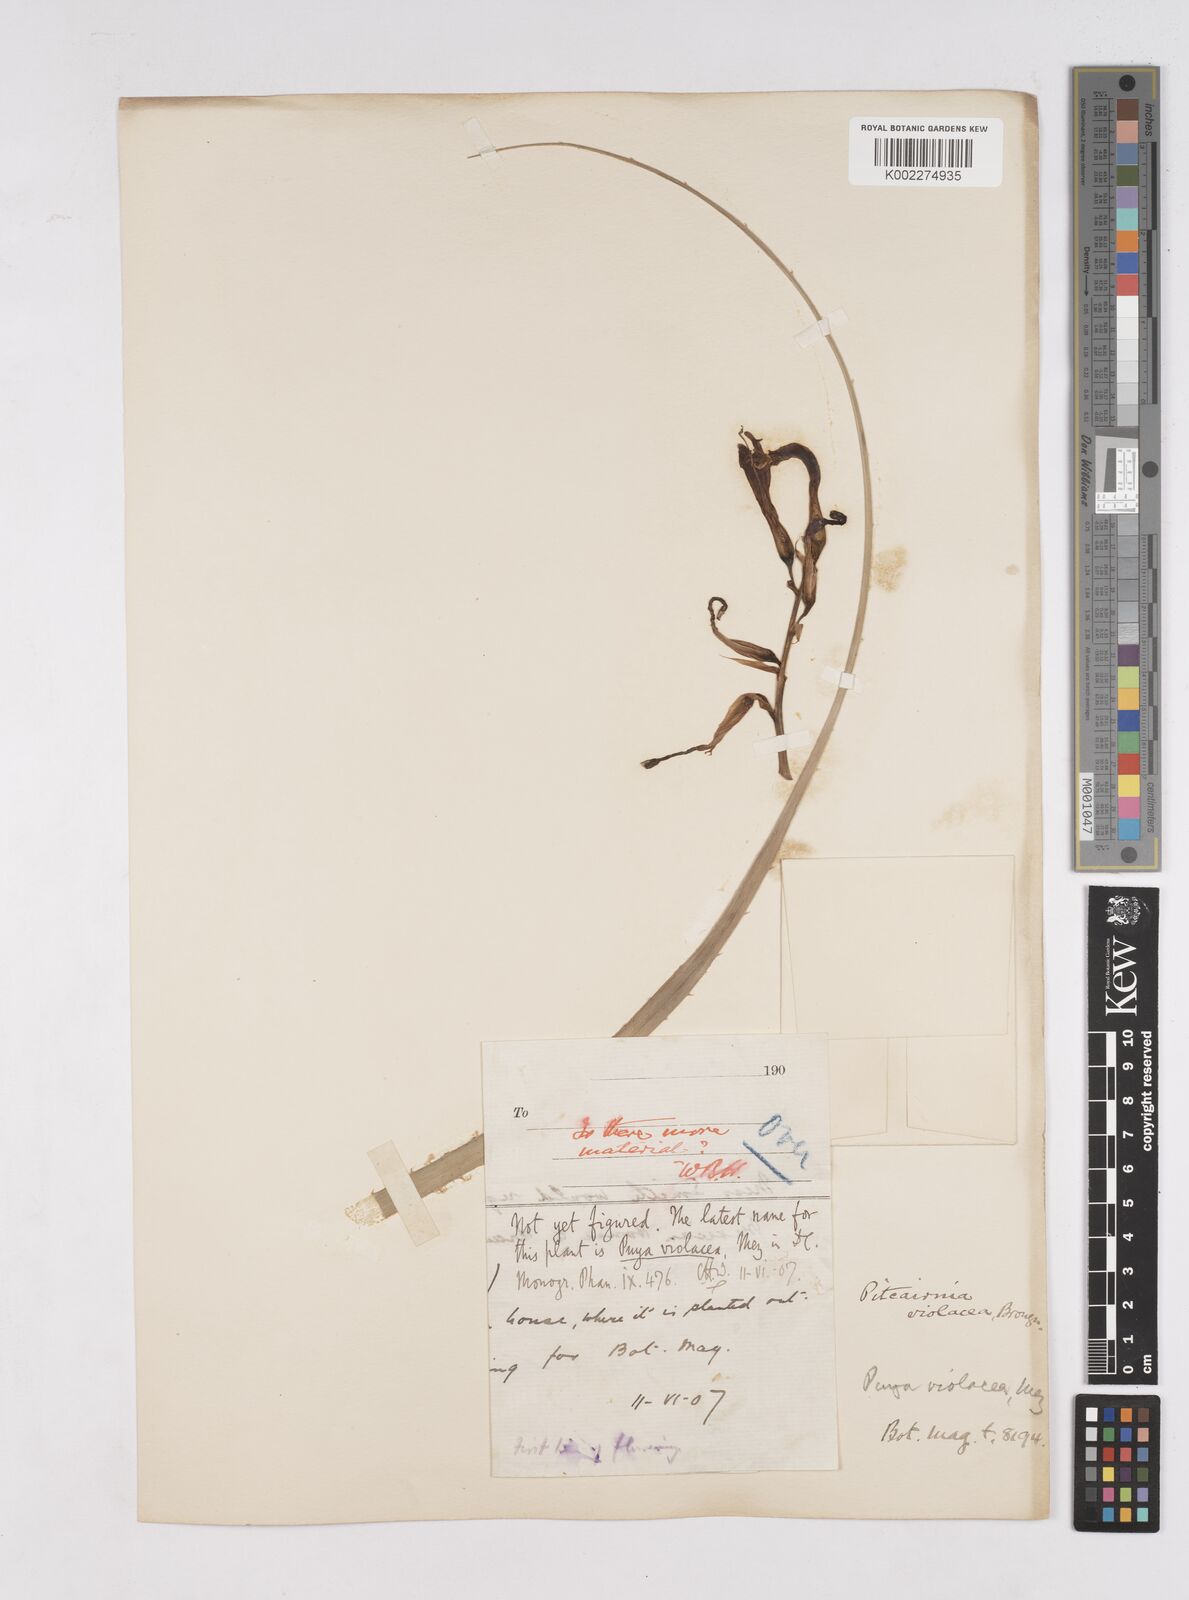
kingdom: Plantae
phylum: Tracheophyta
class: Liliopsida
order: Poales
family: Bromeliaceae
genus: Puya
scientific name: Puya coerulea
